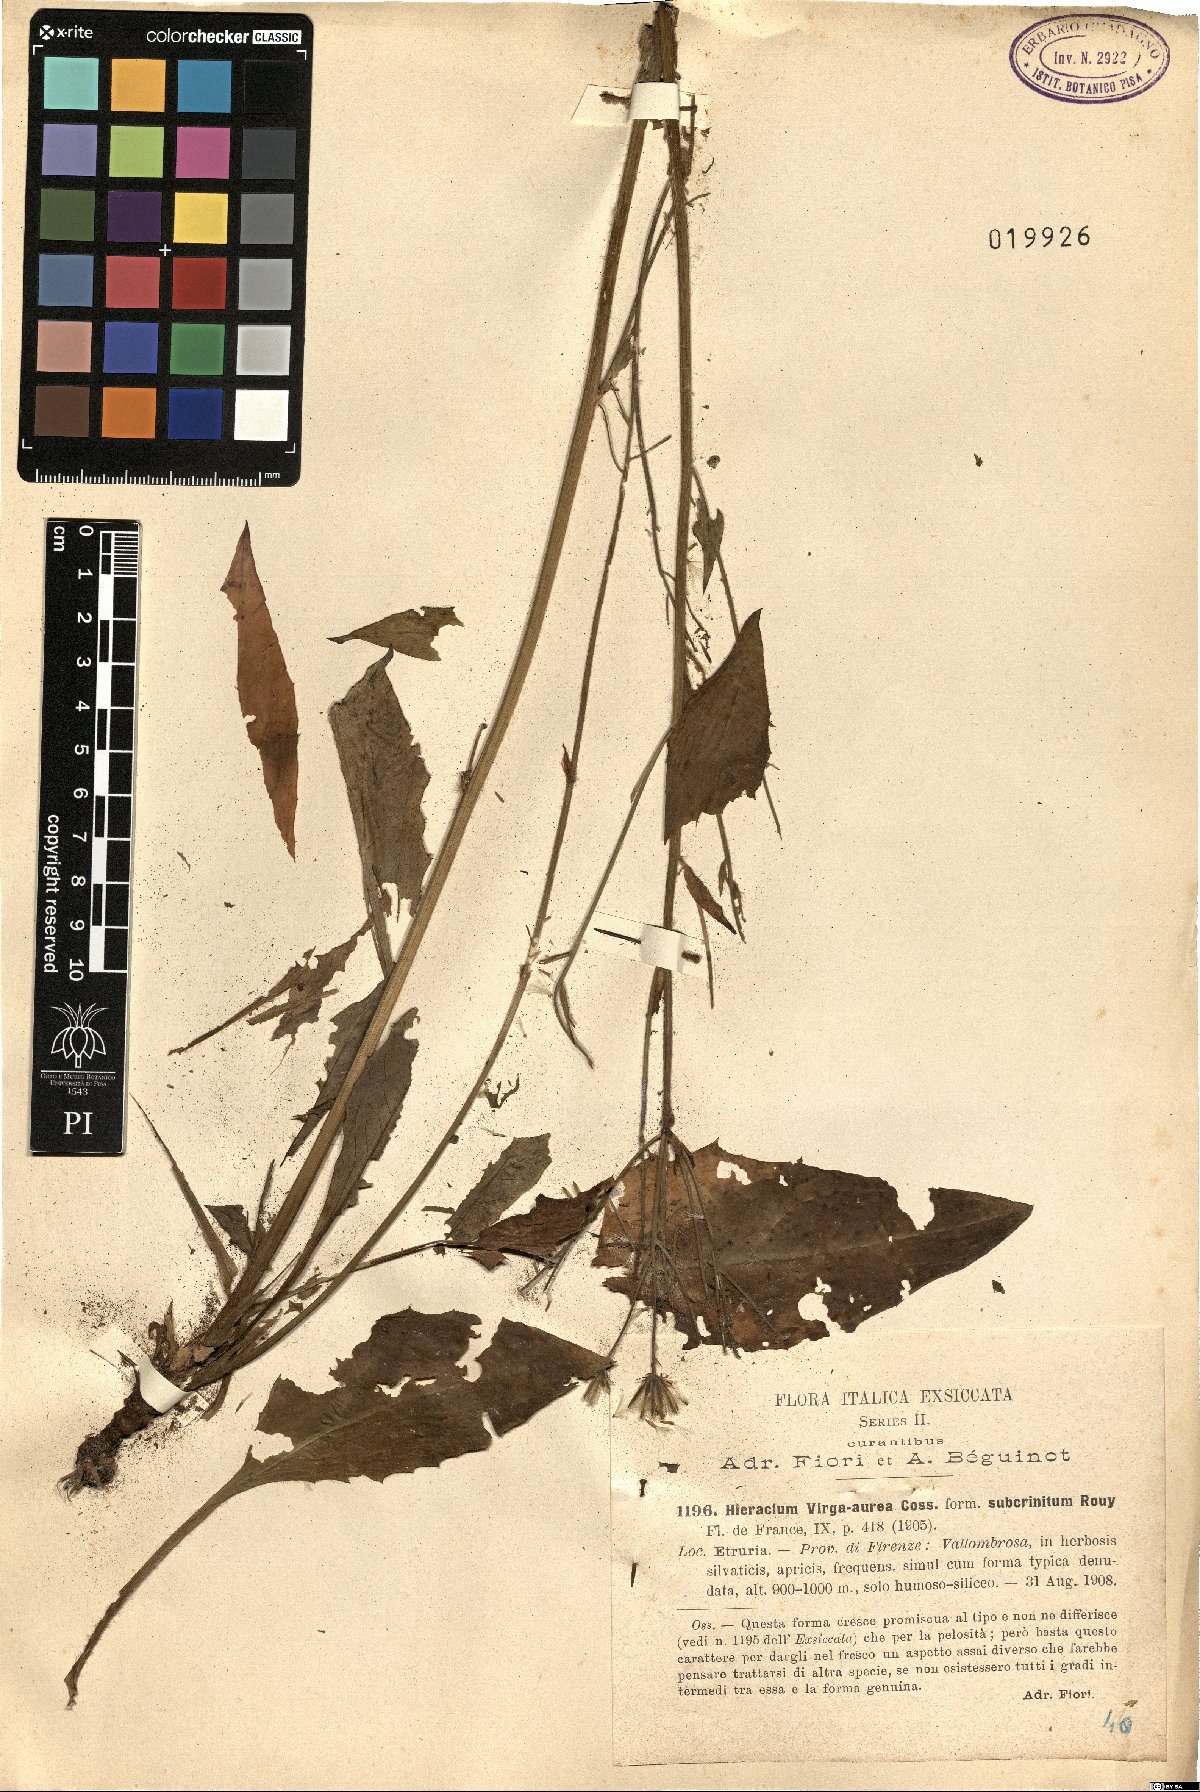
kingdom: Plantae
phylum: Tracheophyta
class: Magnoliopsida
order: Asterales
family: Asteraceae
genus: Hieracium
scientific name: Hieracium racemosum
